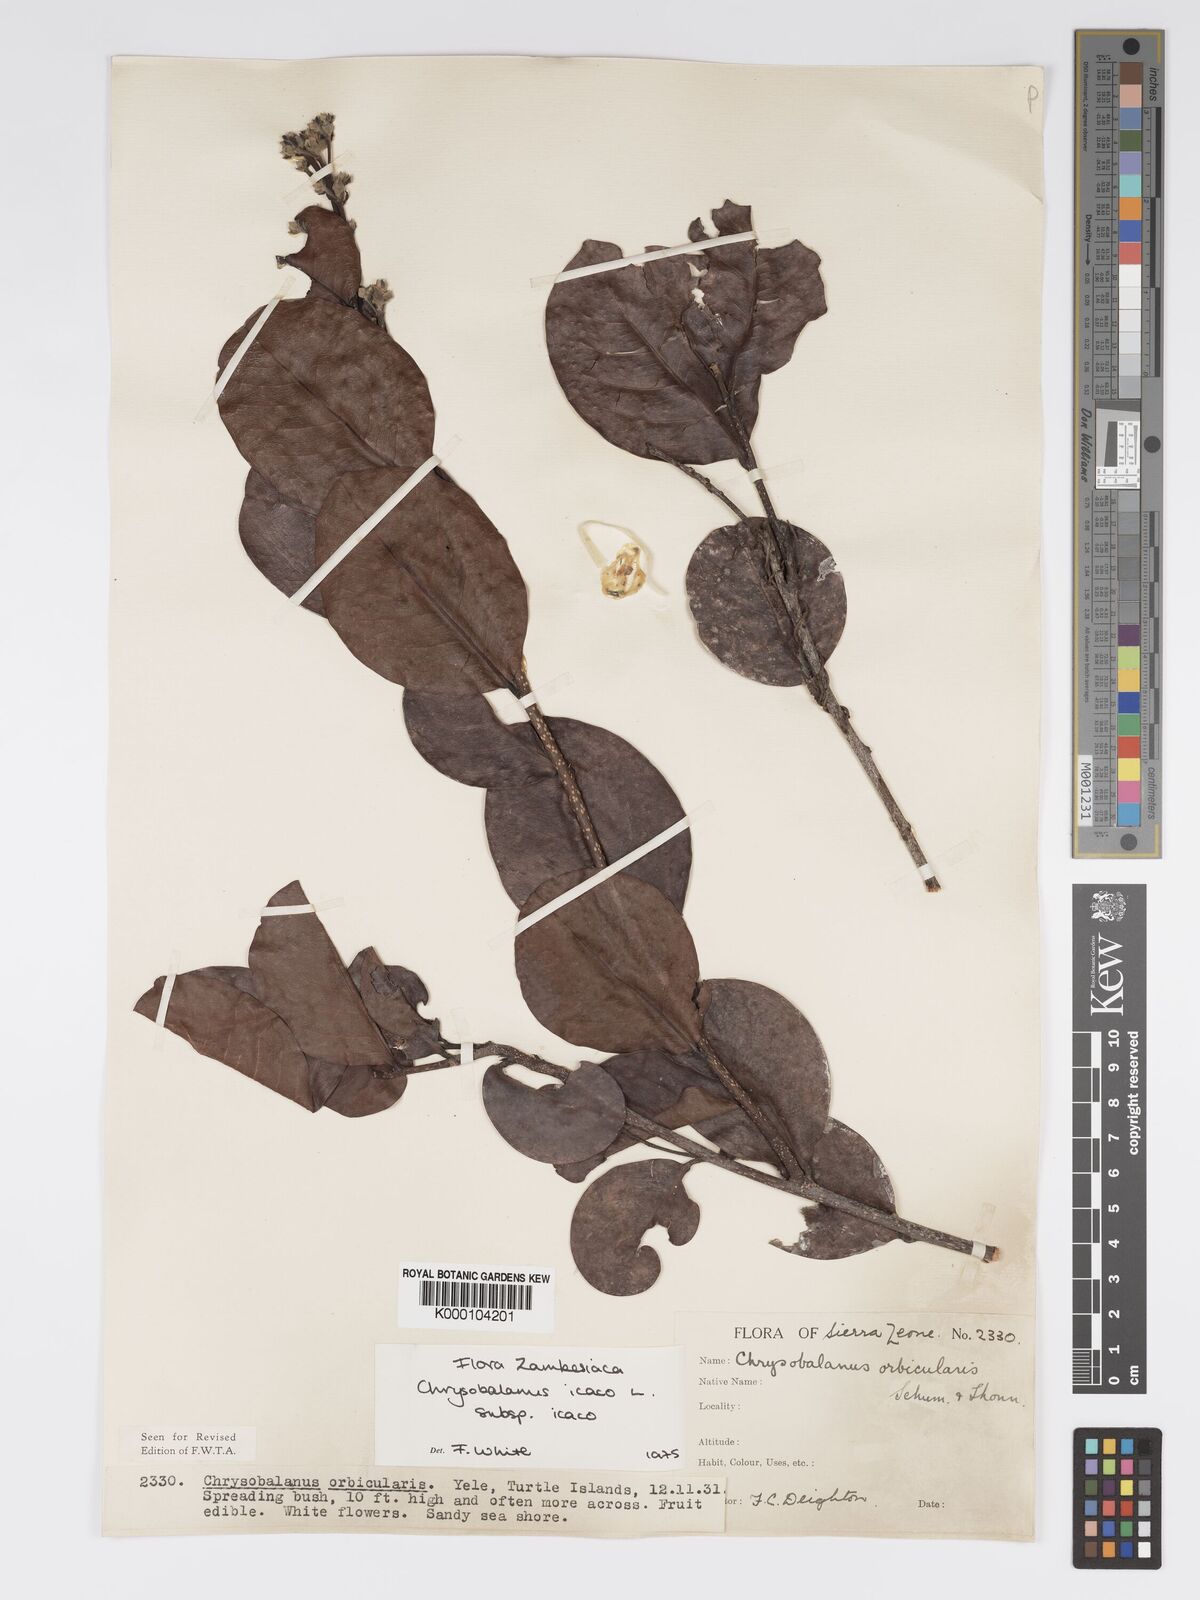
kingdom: Plantae
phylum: Tracheophyta
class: Magnoliopsida
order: Malpighiales
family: Chrysobalanaceae
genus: Chrysobalanus
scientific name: Chrysobalanus icaco
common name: Coco plum
